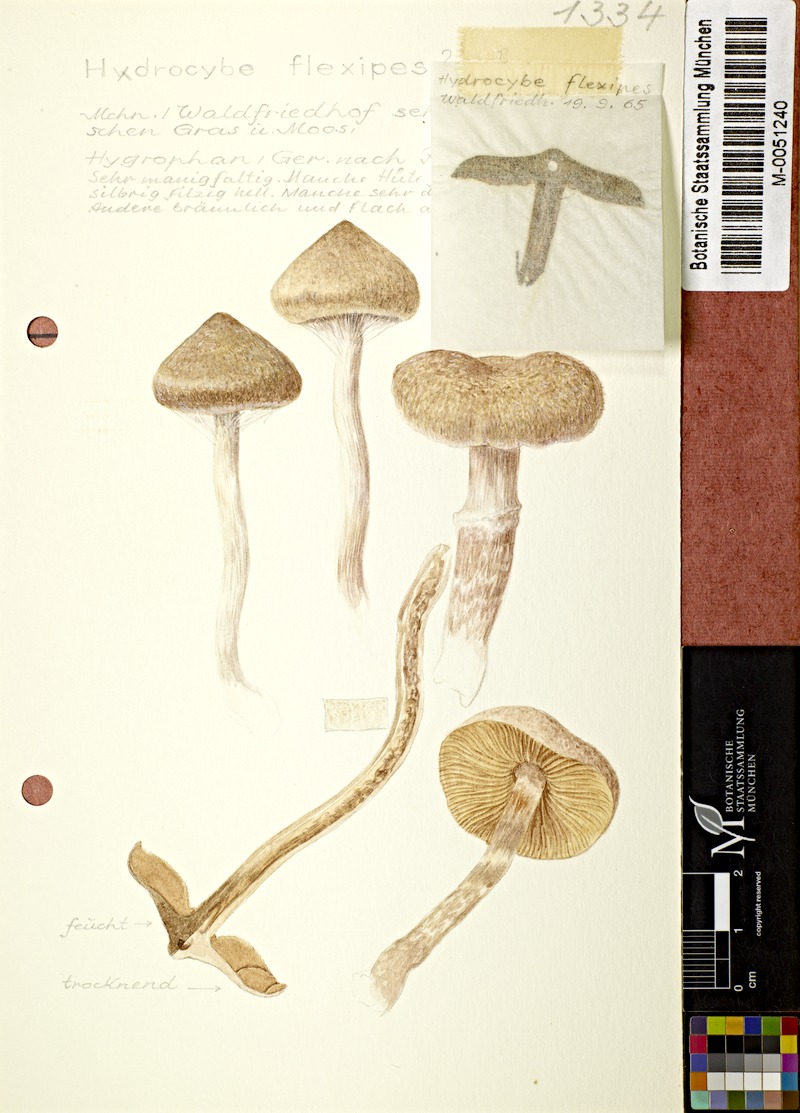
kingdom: Fungi
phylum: Basidiomycota
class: Agaricomycetes
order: Agaricales
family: Cortinariaceae
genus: Cortinarius
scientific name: Cortinarius flexipes
